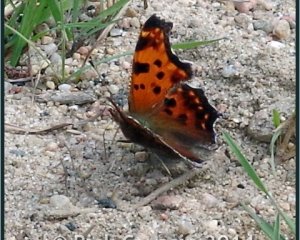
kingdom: Animalia
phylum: Arthropoda
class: Insecta
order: Lepidoptera
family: Nymphalidae
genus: Polygonia
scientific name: Polygonia comma
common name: Eastern Comma
